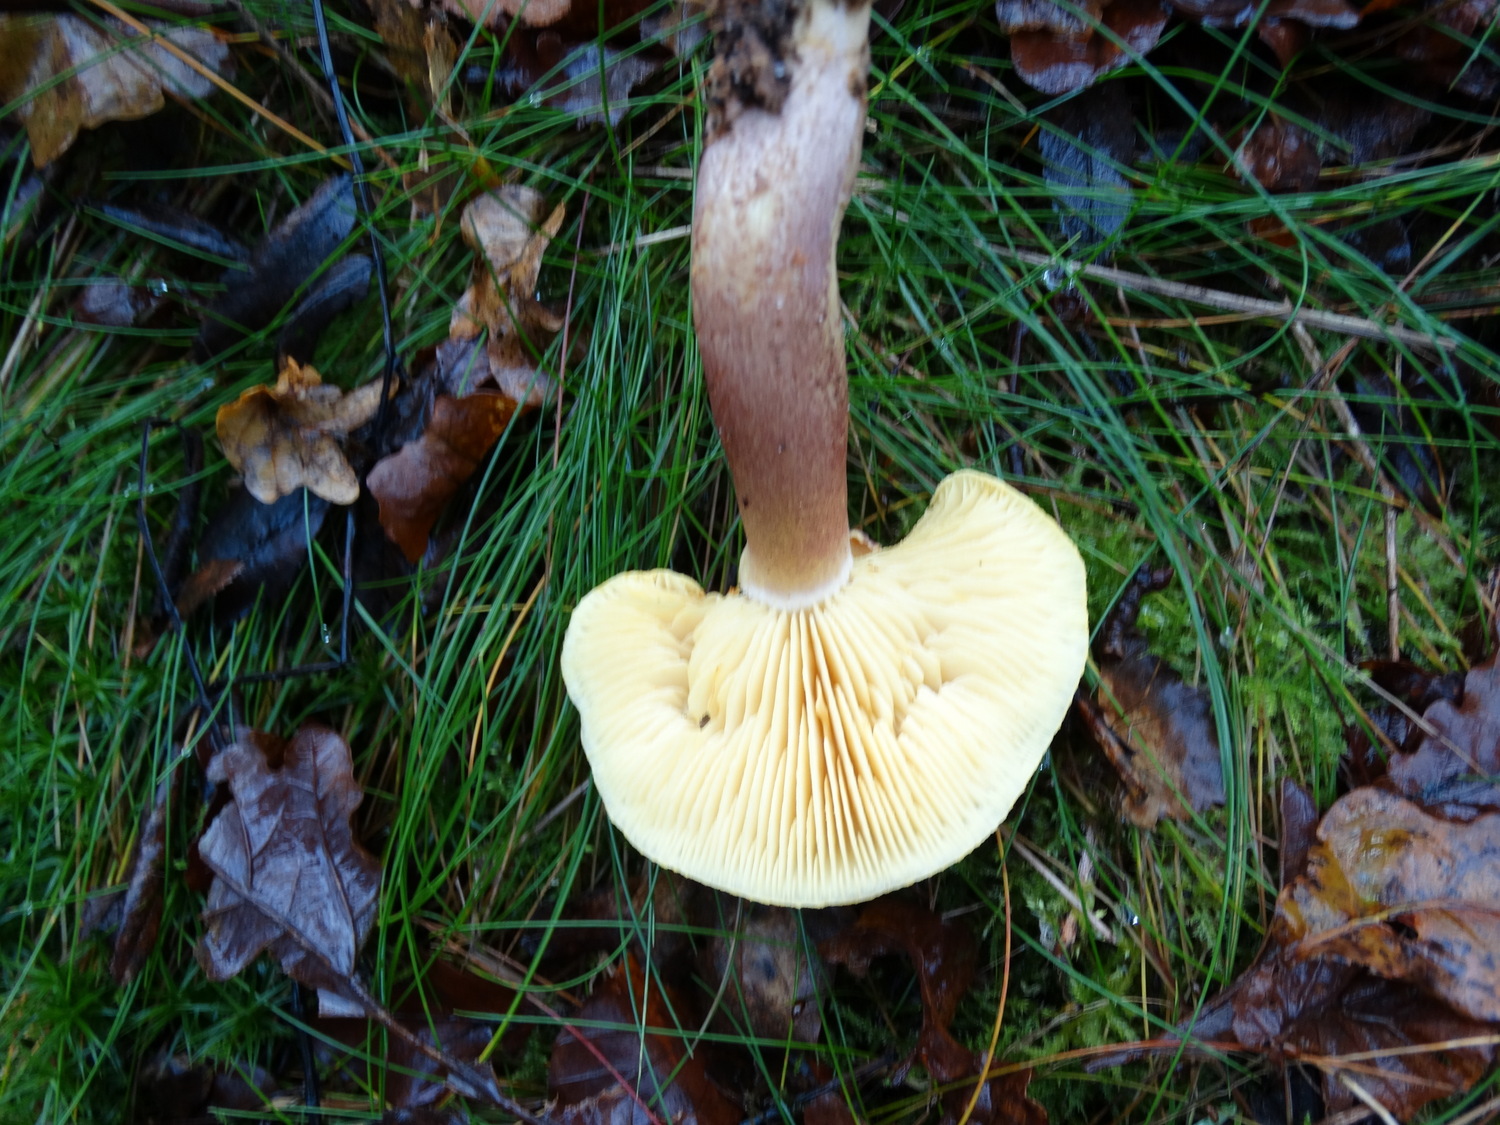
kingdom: Fungi
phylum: Basidiomycota
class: Agaricomycetes
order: Agaricales
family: Tricholomataceae
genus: Tricholomopsis
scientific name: Tricholomopsis rutilans
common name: purpur-væbnerhat
